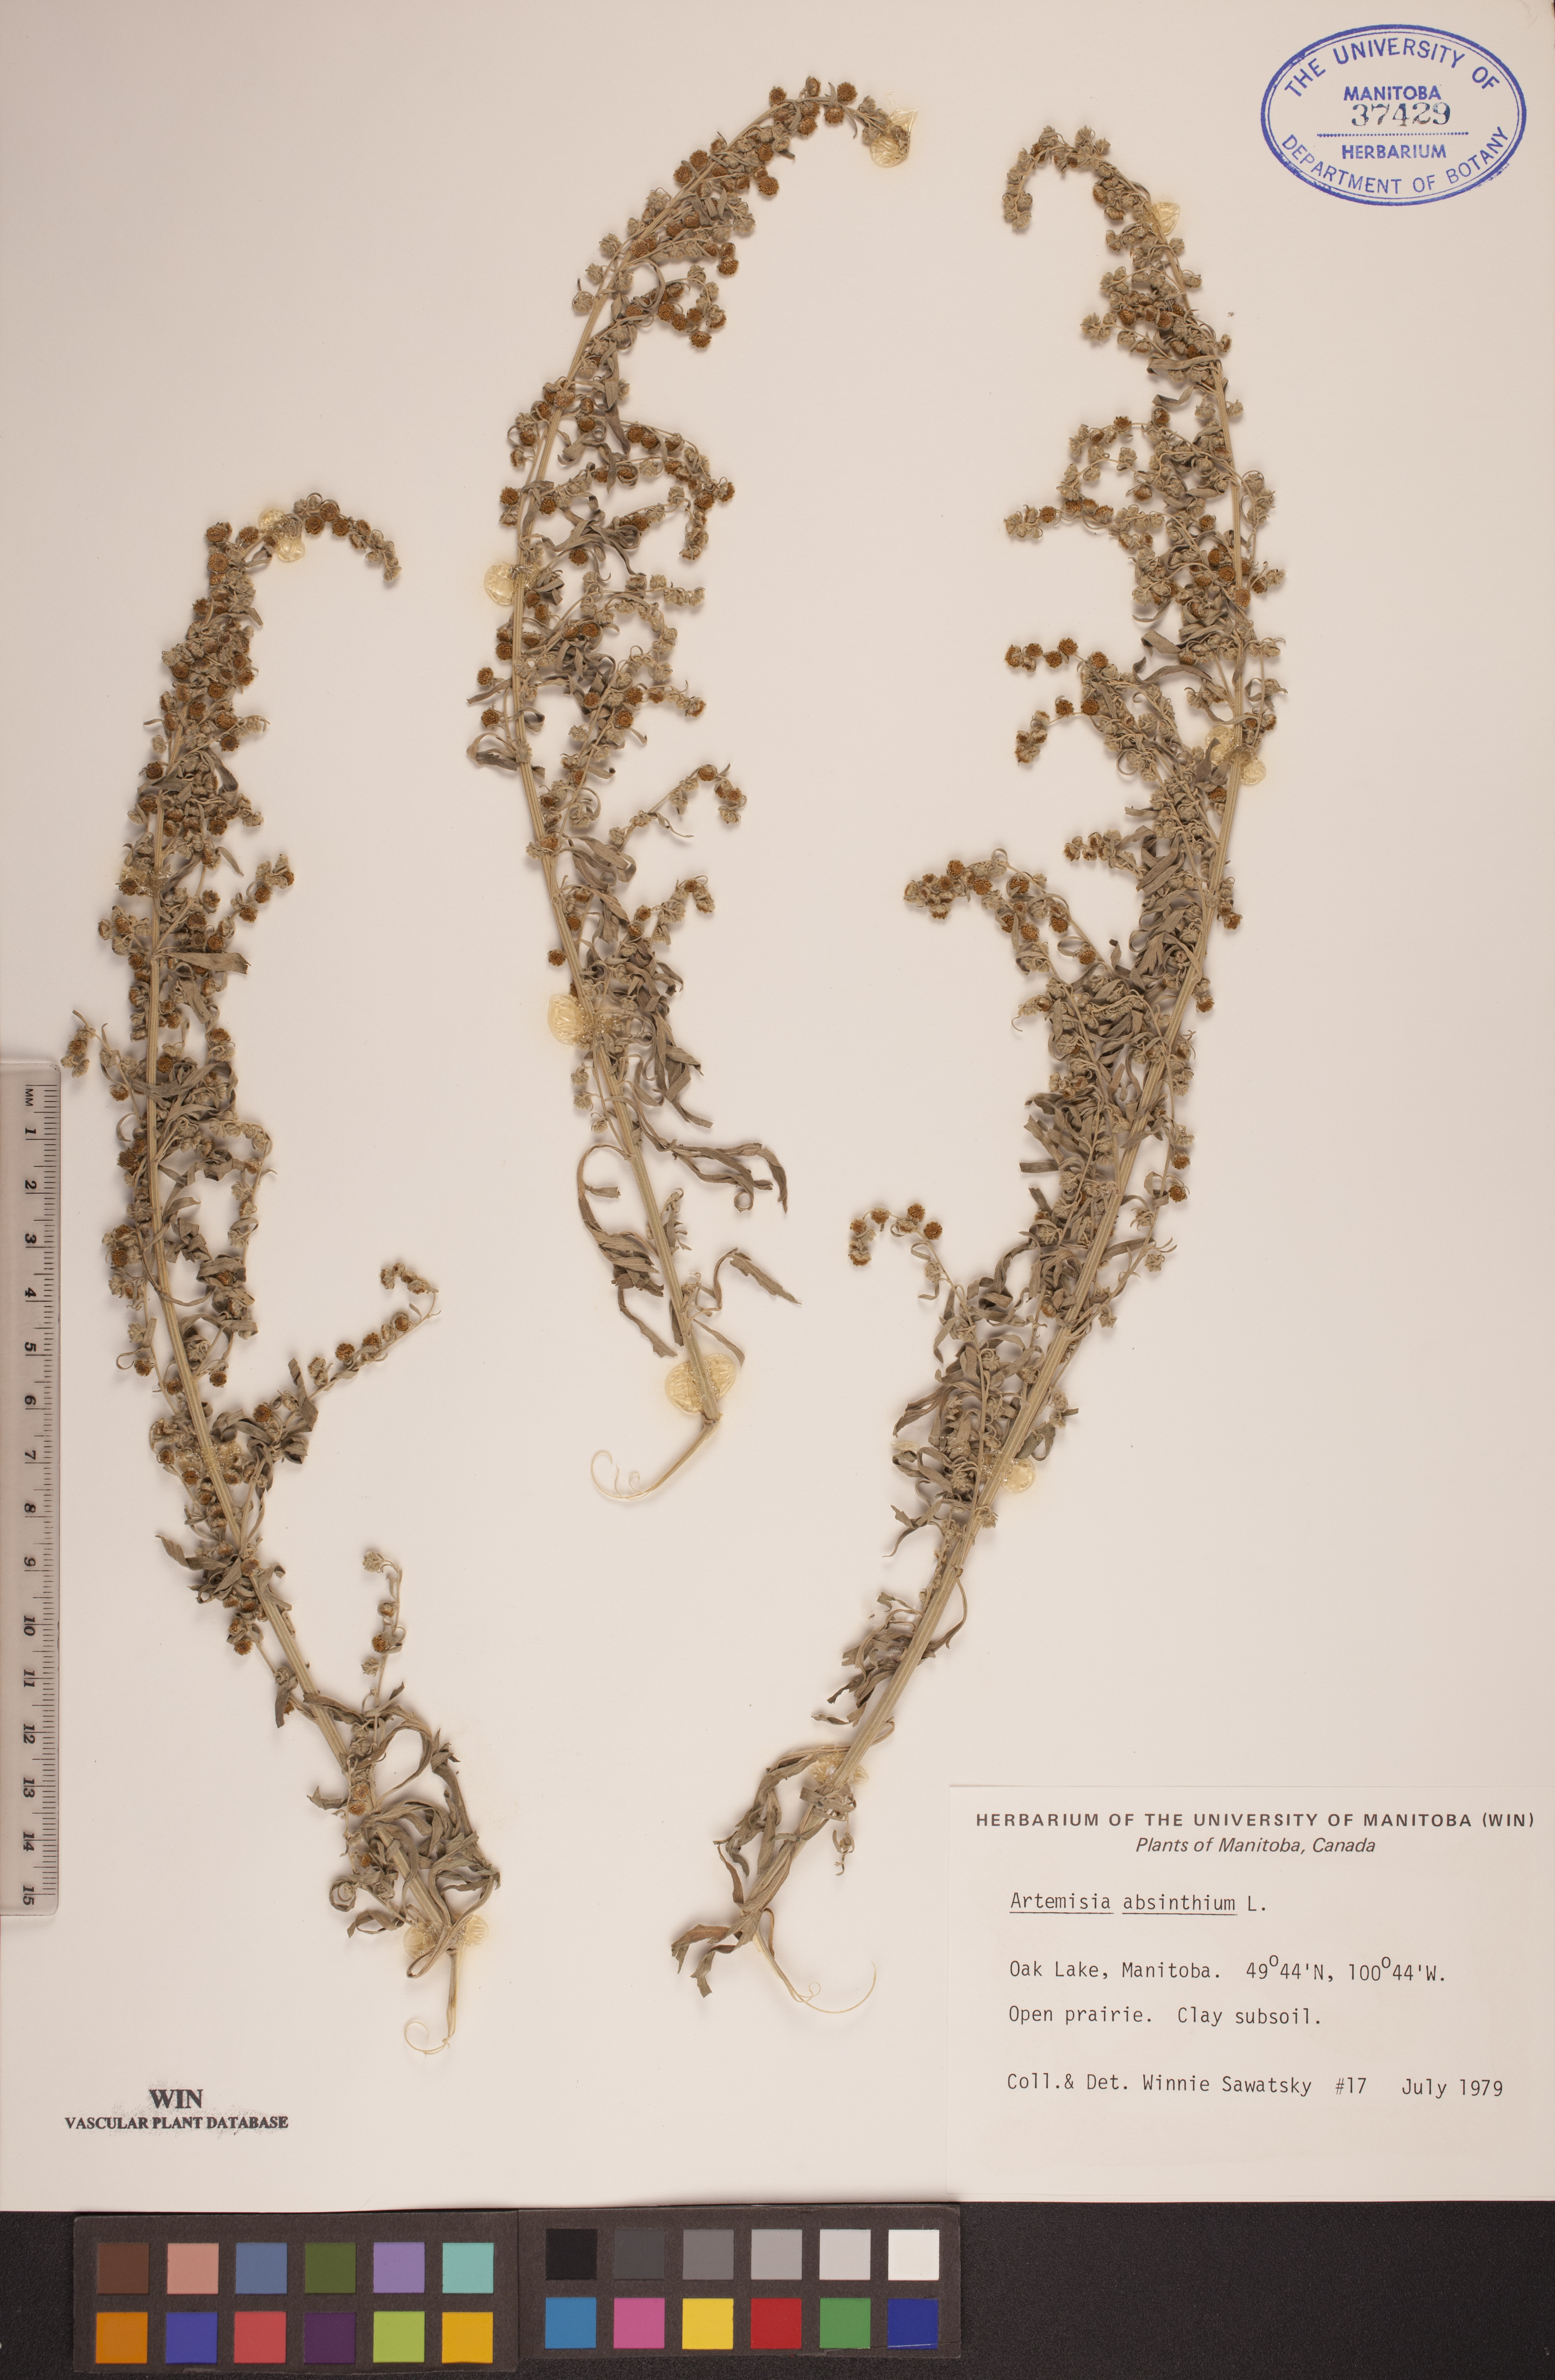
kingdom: Plantae
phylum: Tracheophyta
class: Magnoliopsida
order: Asterales
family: Asteraceae
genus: Artemisia
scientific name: Artemisia absinthium
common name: Wormwood
